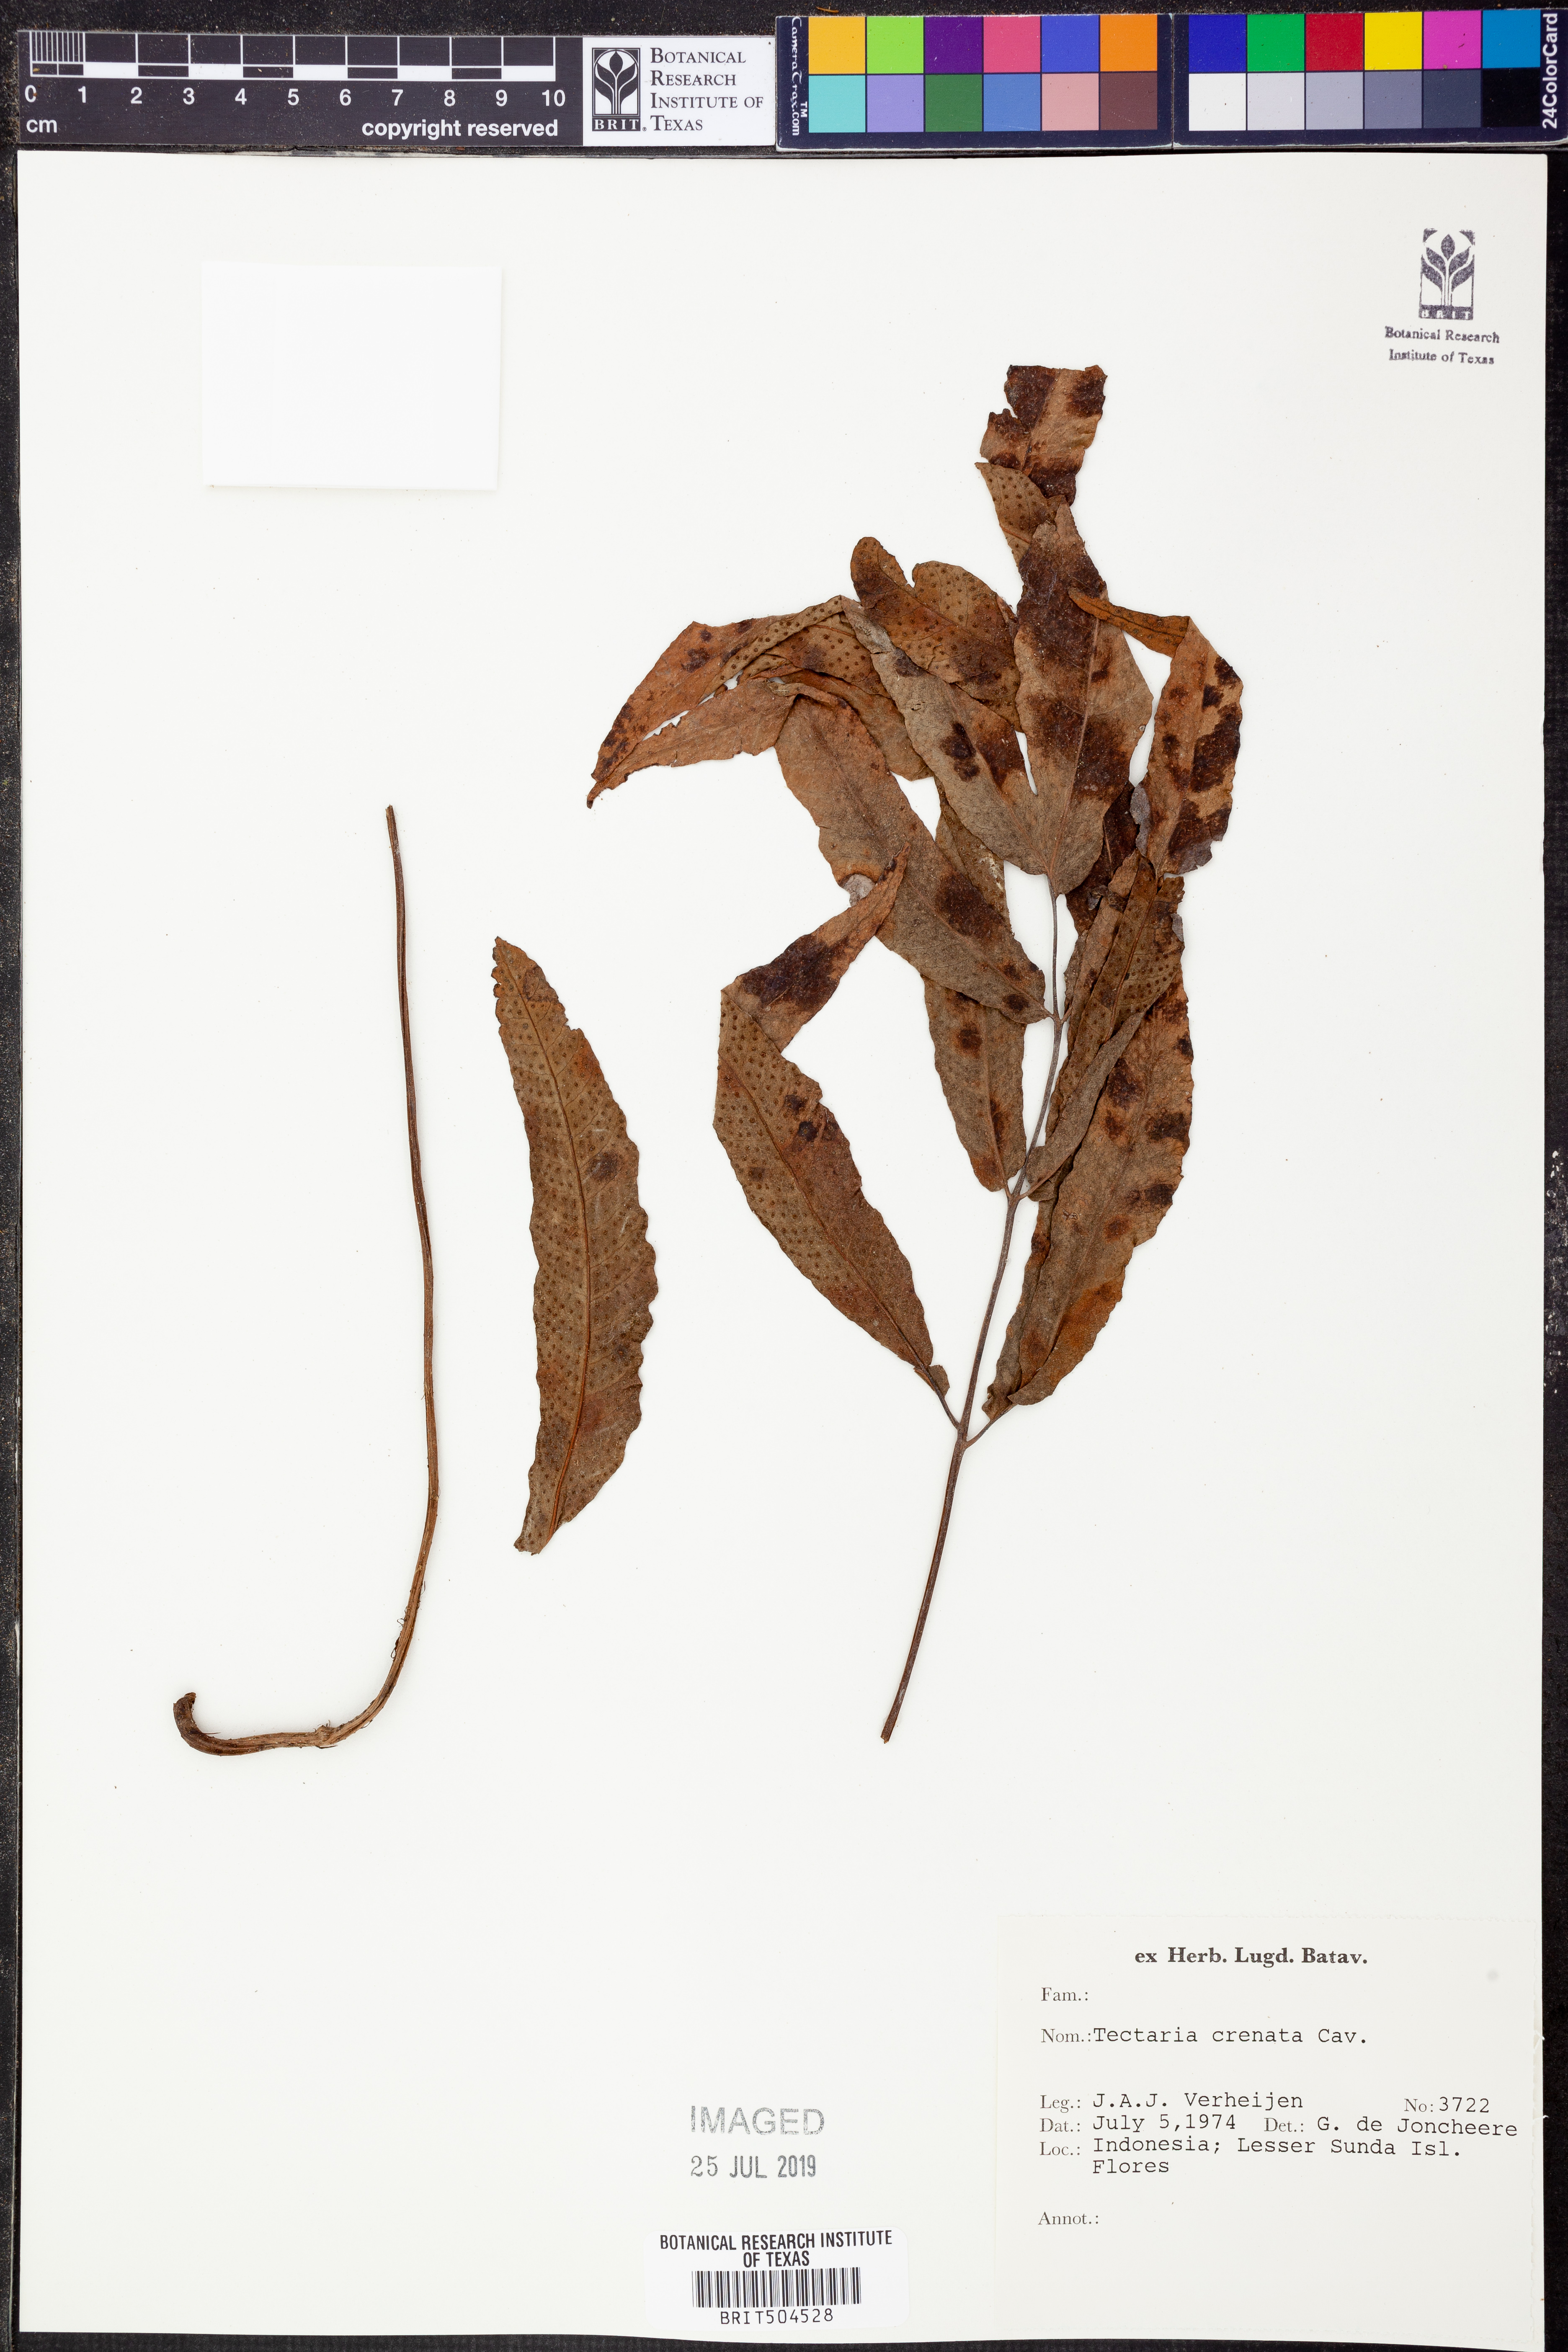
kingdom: Plantae
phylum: Tracheophyta
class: Polypodiopsida
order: Polypodiales
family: Tectariaceae
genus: Tectaria
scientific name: Tectaria crenata
